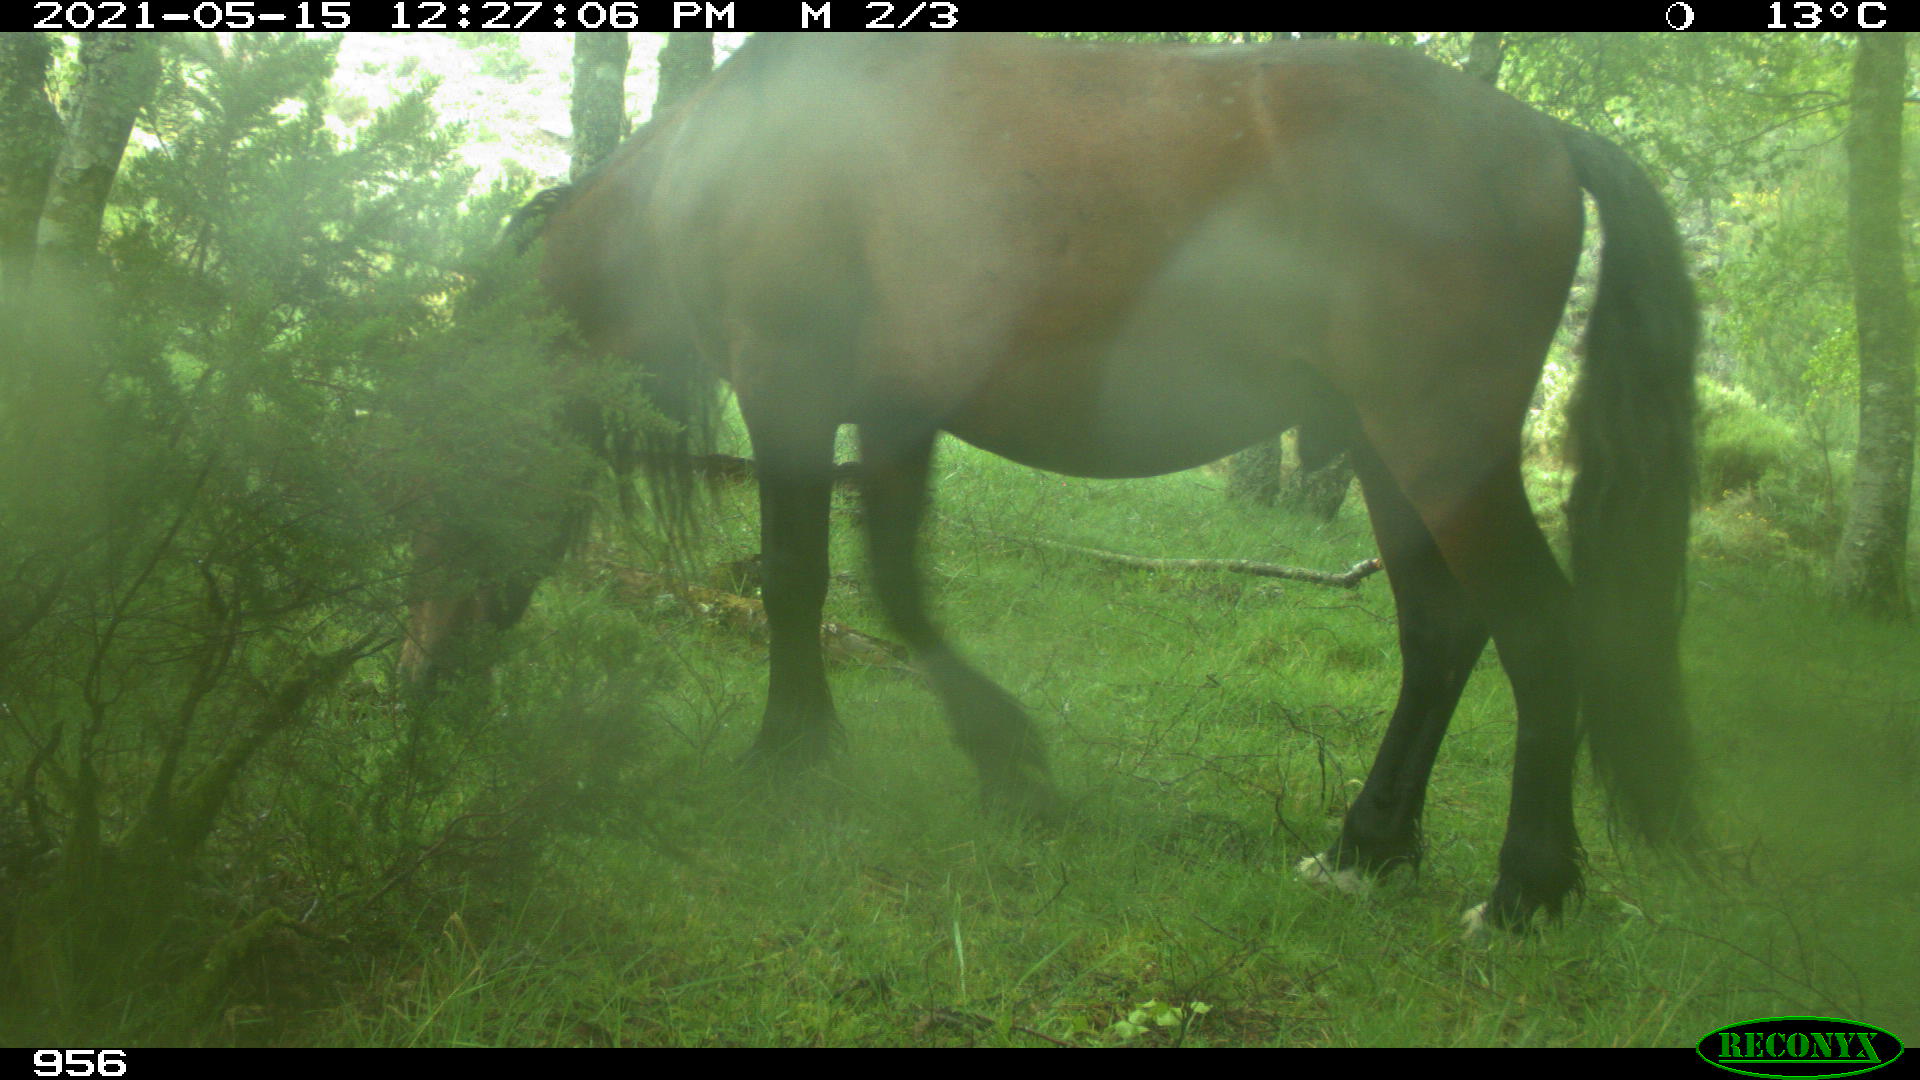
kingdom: Animalia
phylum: Chordata
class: Mammalia
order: Perissodactyla
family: Equidae
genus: Equus
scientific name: Equus caballus
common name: Horse
